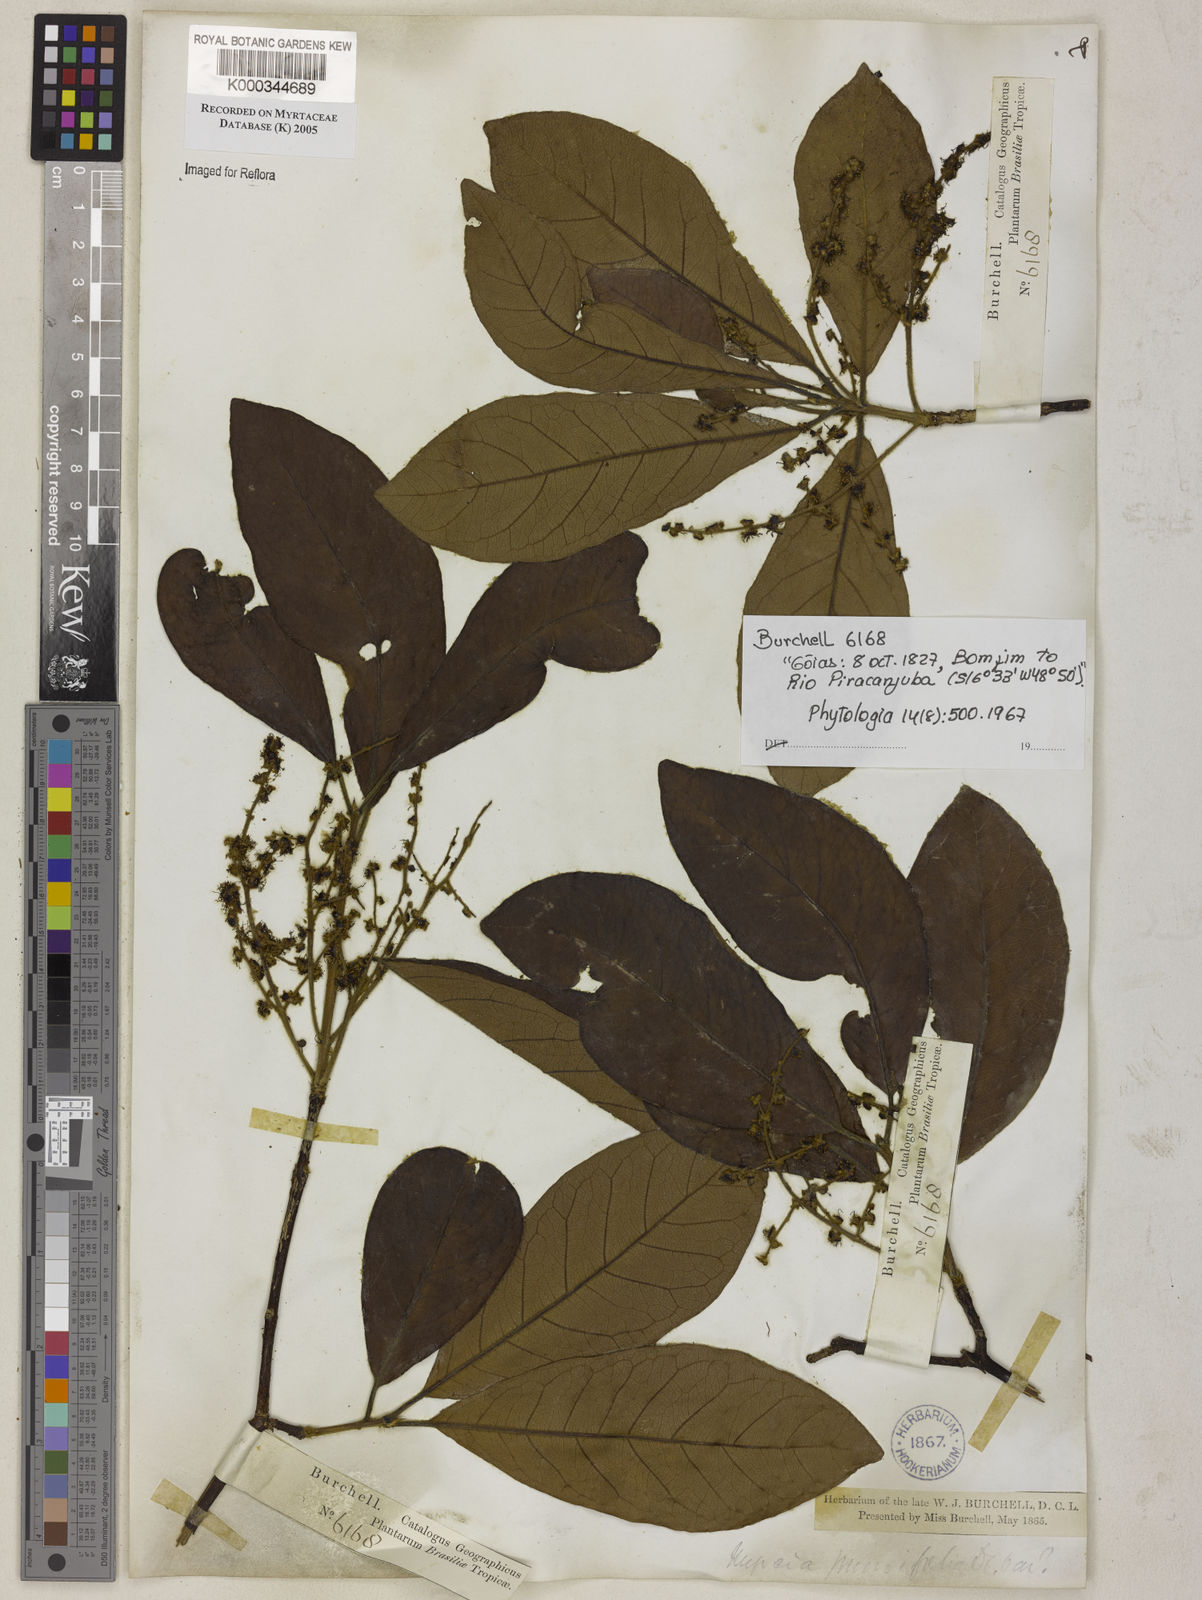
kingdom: Plantae
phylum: Tracheophyta
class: Magnoliopsida
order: Myrtales
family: Myrtaceae
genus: Myrcia
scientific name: Myrcia tomentosa
